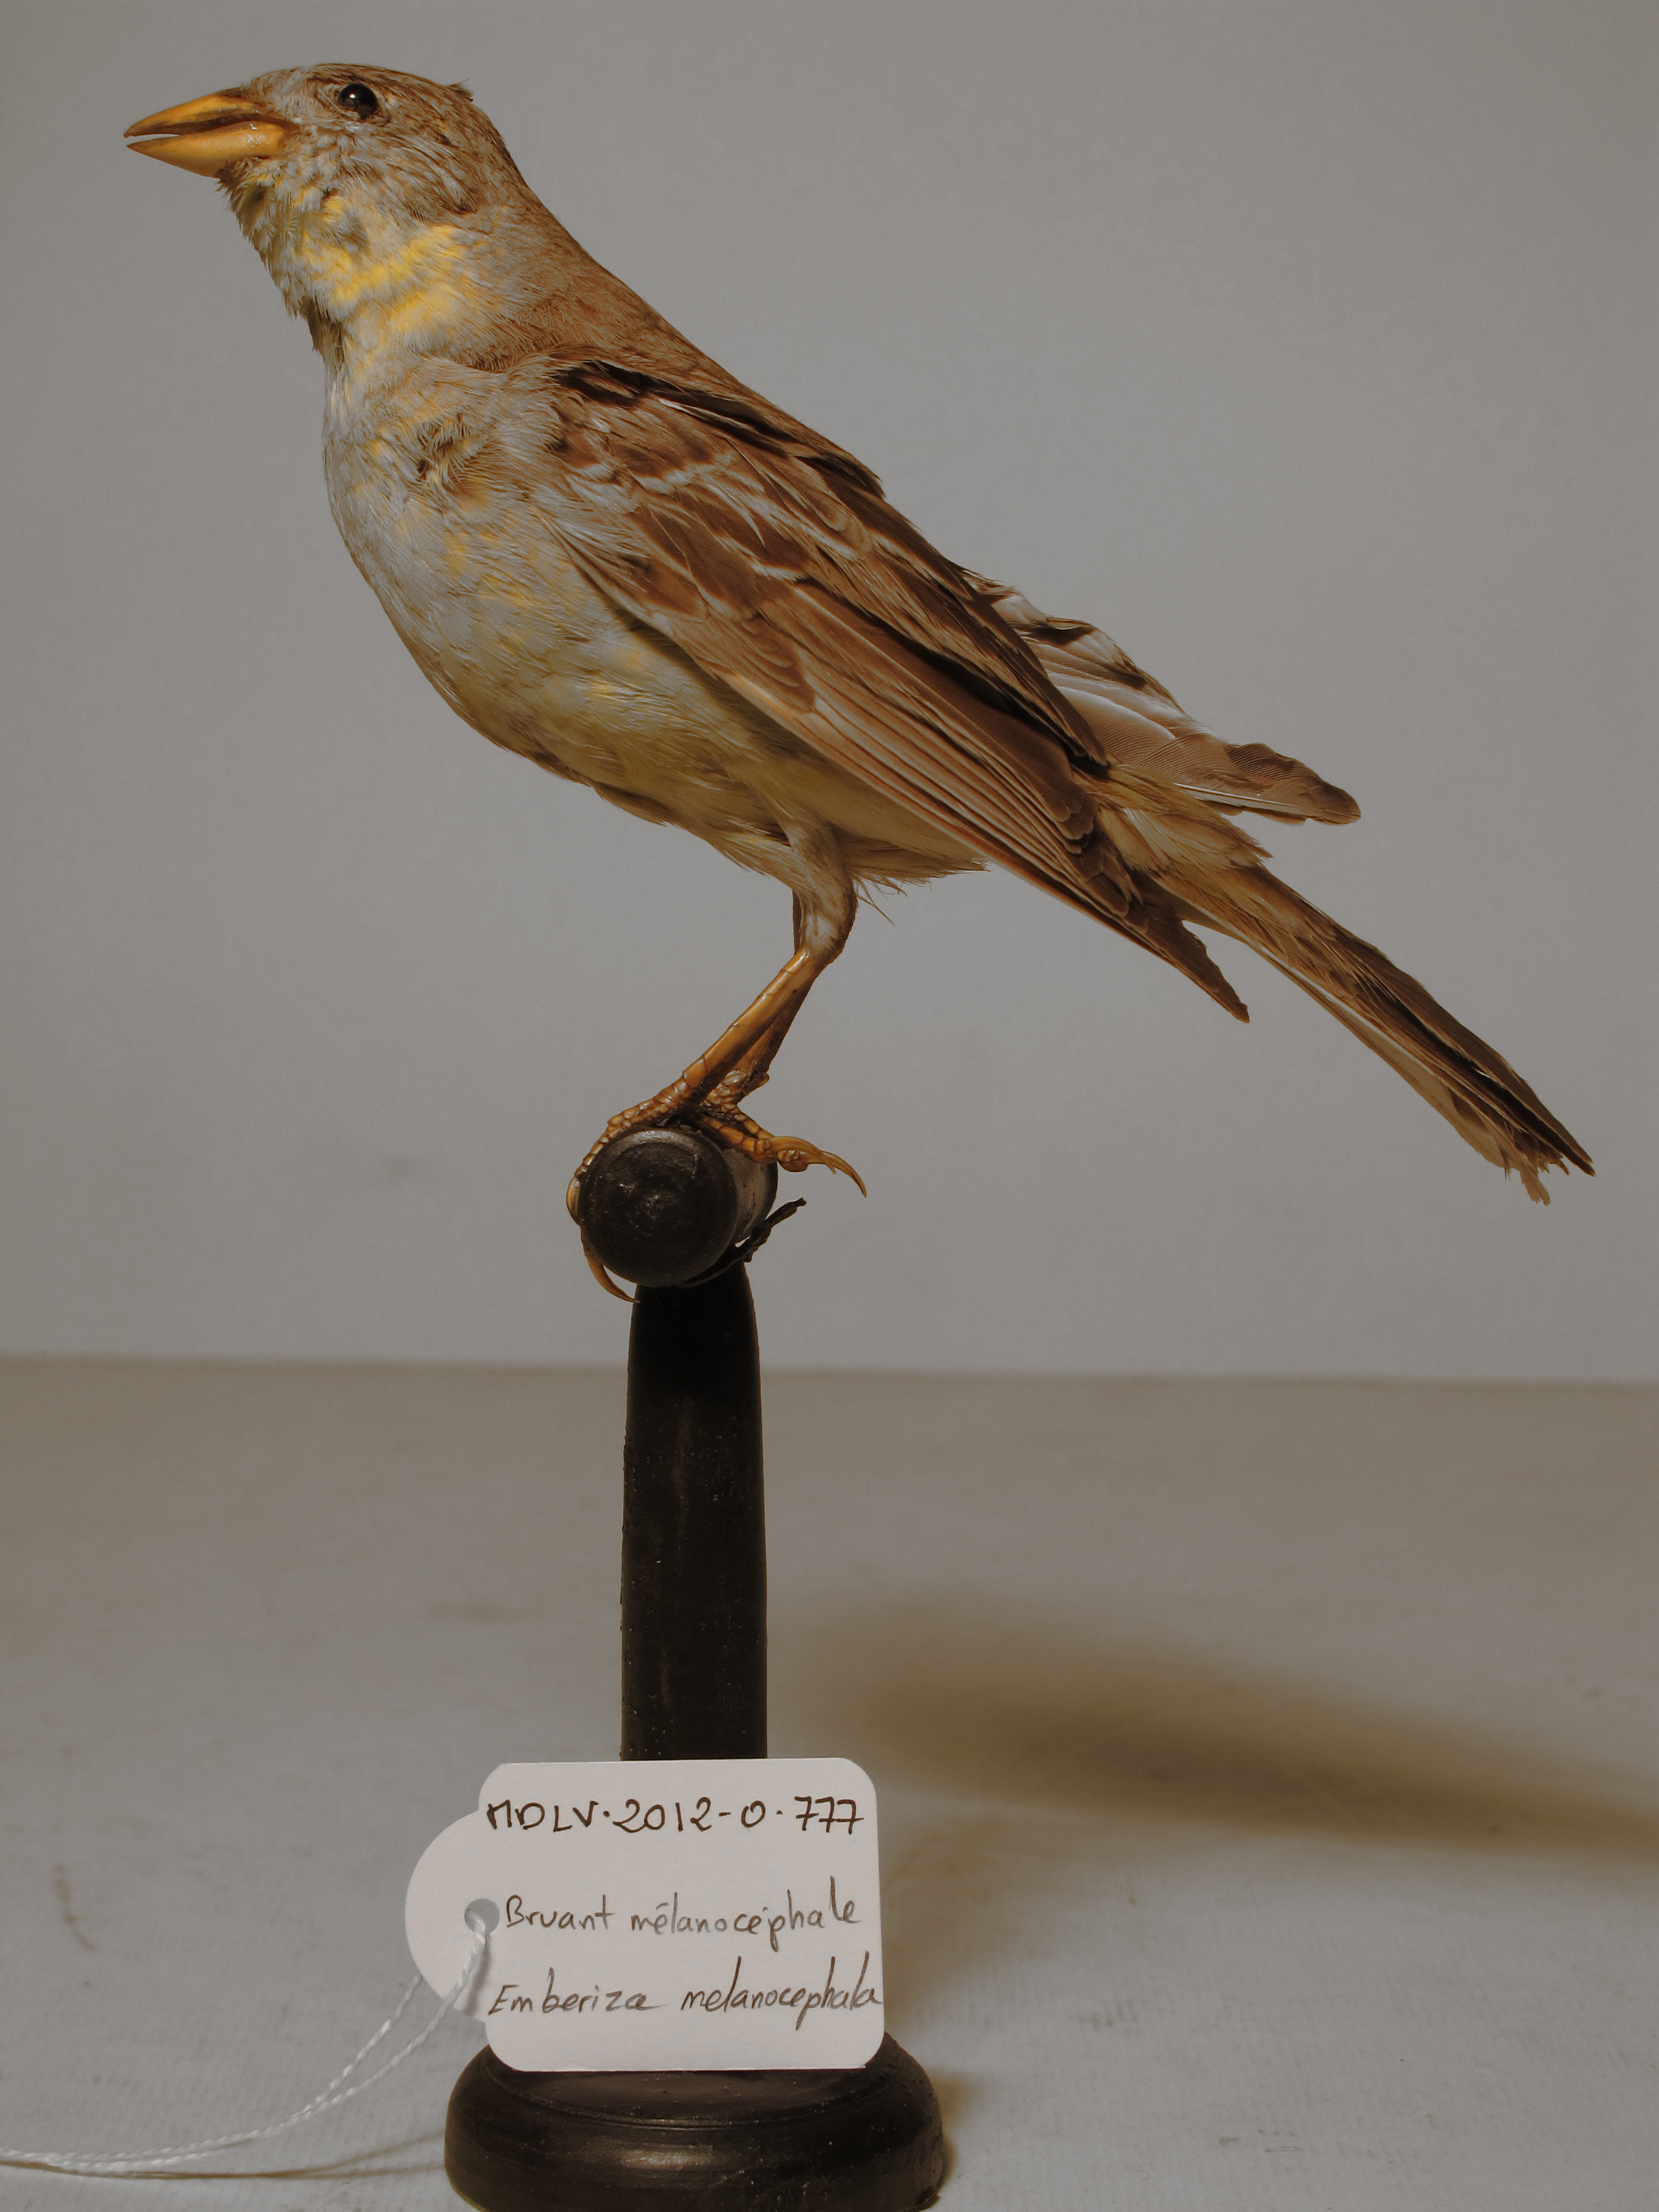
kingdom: Animalia
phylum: Chordata
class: Aves
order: Passeriformes
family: Emberizidae
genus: Emberiza
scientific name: Emberiza melanocephala
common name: Black-headed Bunting
